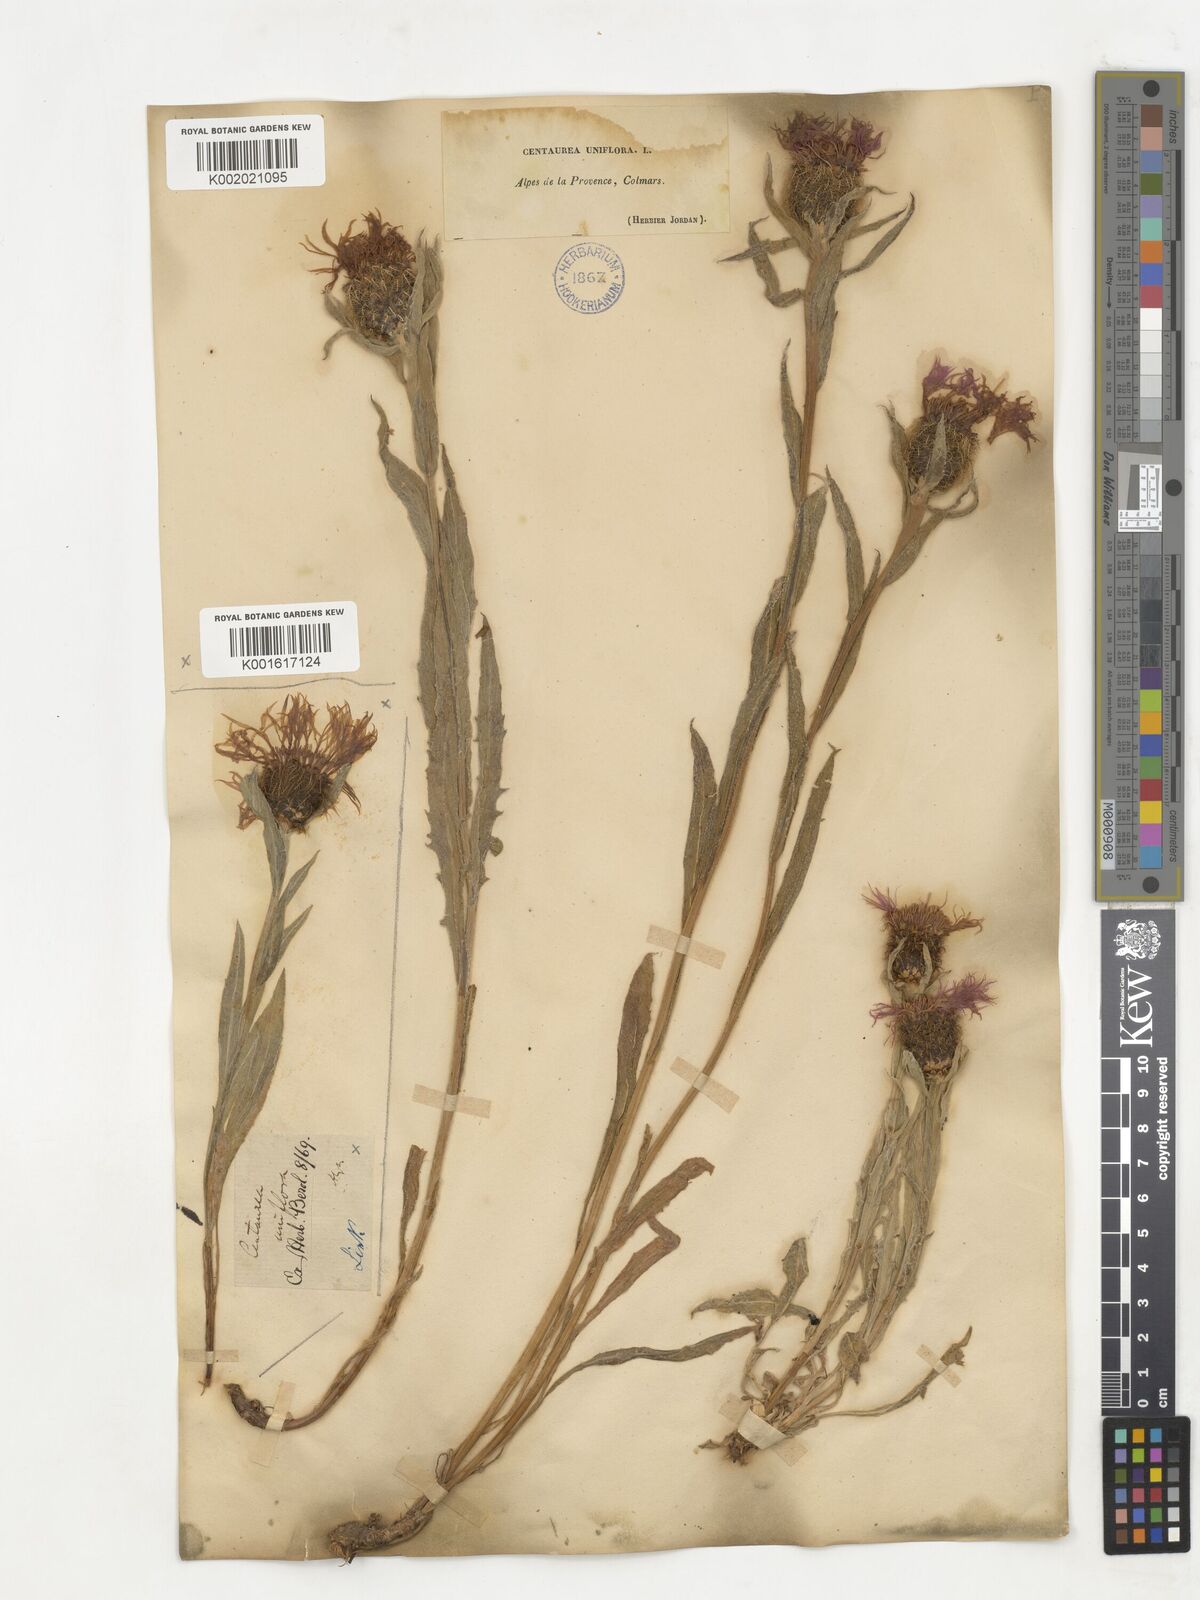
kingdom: Plantae
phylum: Tracheophyta
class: Magnoliopsida
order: Asterales
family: Asteraceae
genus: Centaurea
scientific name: Centaurea
